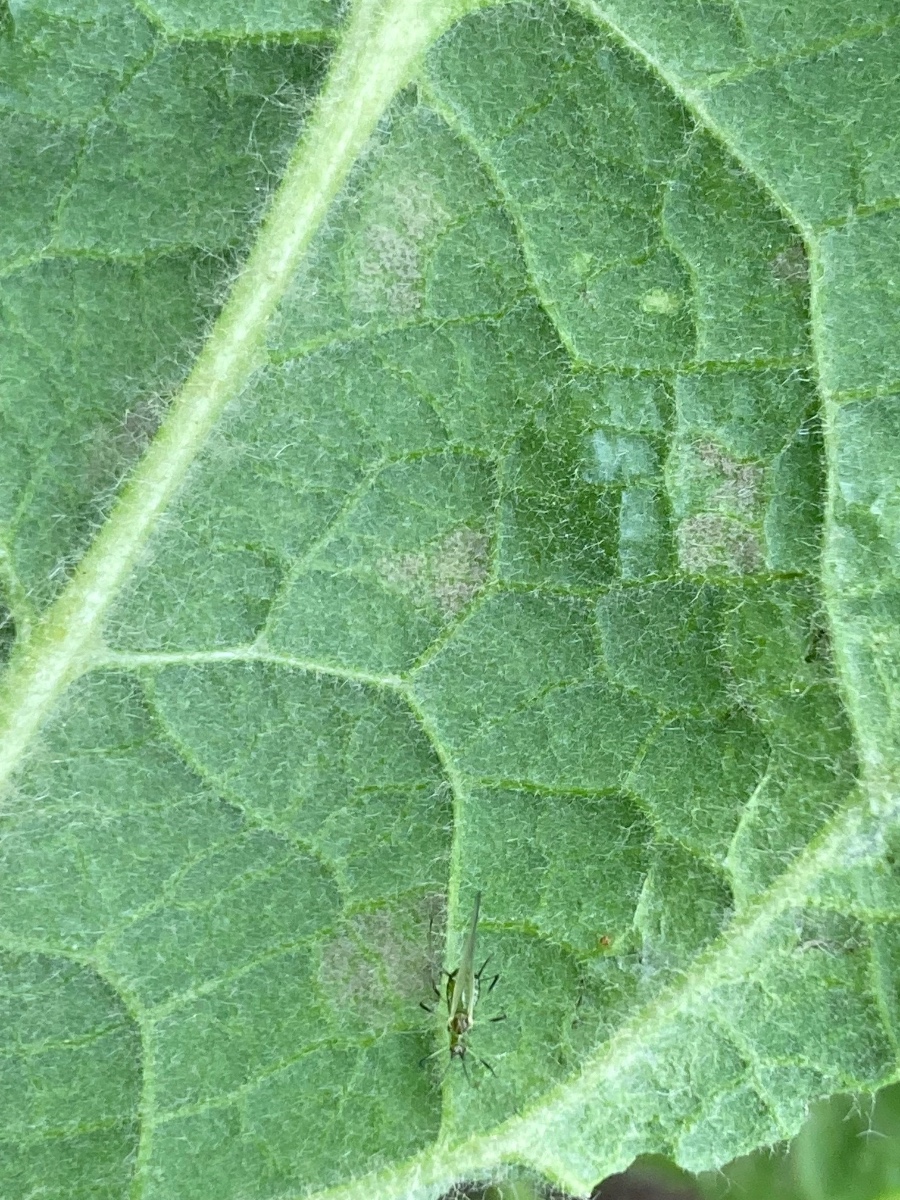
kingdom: Chromista
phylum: Oomycota
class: Peronosporea
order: Peronosporales
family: Peronosporaceae
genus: Peronospora
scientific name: Peronospora verbasci
